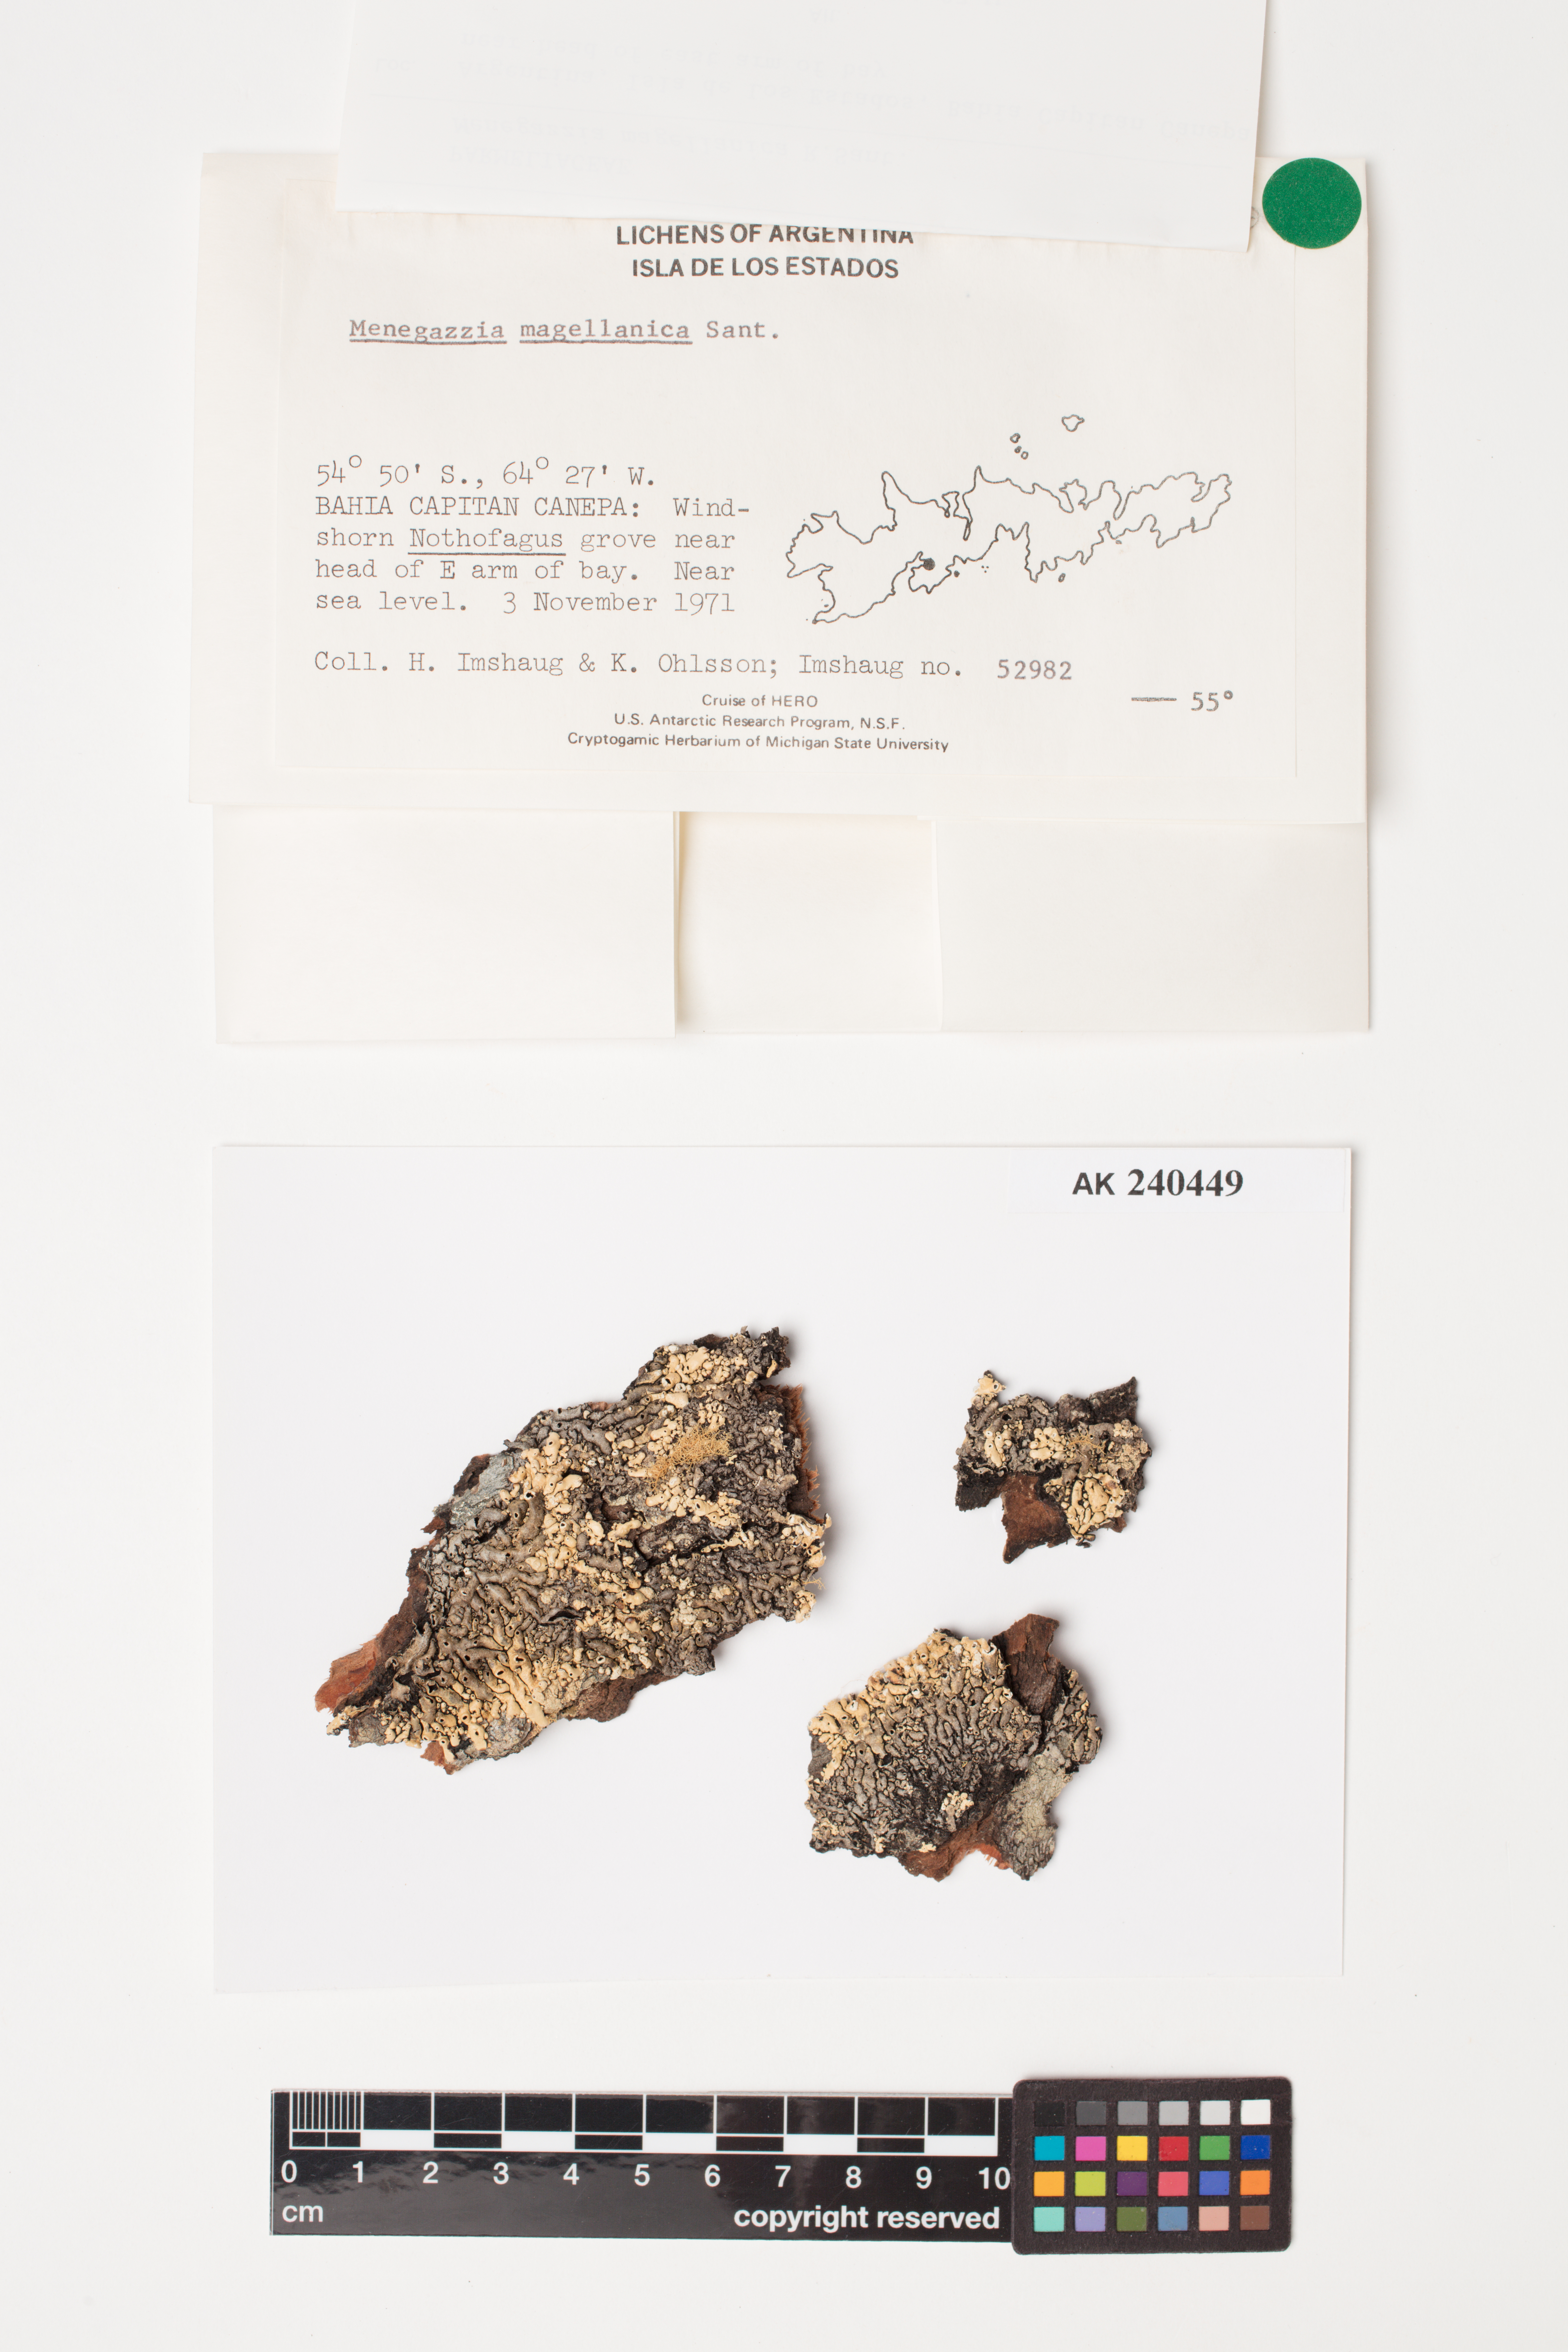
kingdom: Fungi
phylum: Ascomycota
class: Lecanoromycetes
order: Lecanorales
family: Parmeliaceae
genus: Menegazzia
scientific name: Menegazzia subpertusa
